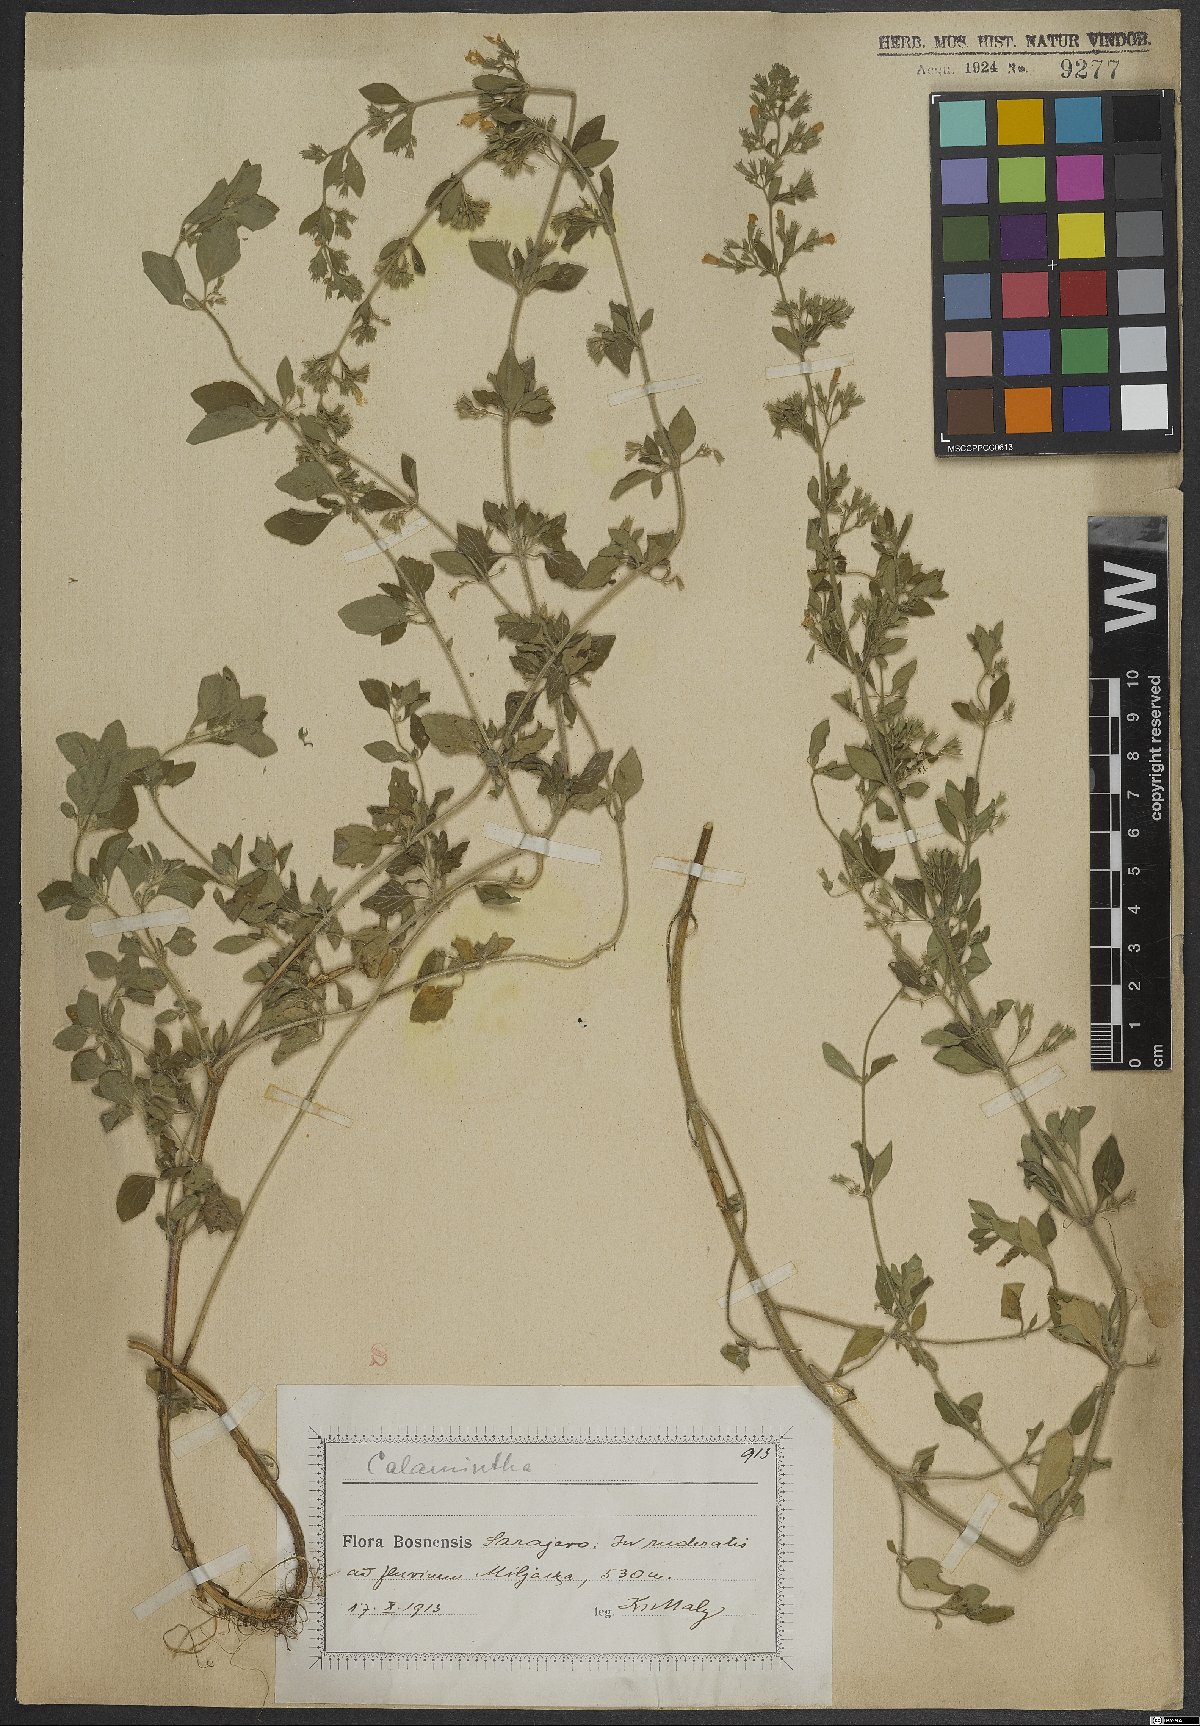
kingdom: Plantae
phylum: Tracheophyta
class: Magnoliopsida
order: Lamiales
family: Lamiaceae
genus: Calamintha
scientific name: Calamintha
